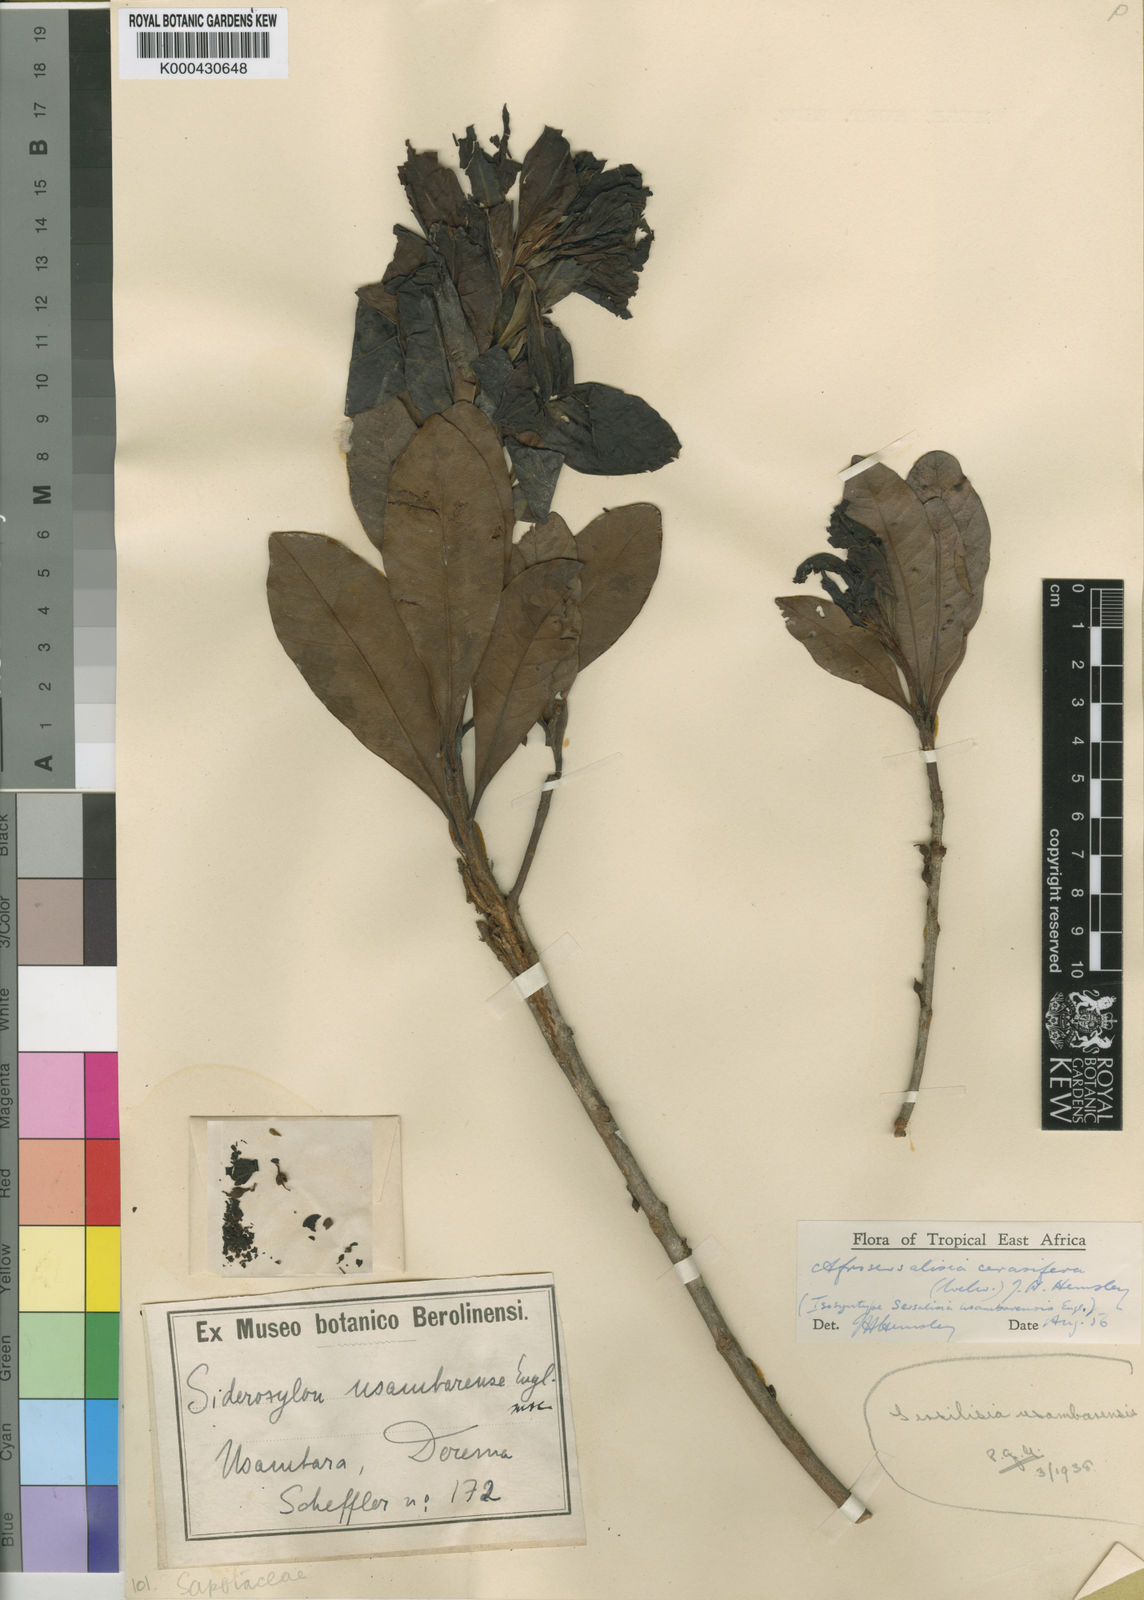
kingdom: Plantae
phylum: Tracheophyta
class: Magnoliopsida
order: Ericales
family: Sapotaceae
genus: Synsepalum
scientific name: Synsepalum cerasiferum
